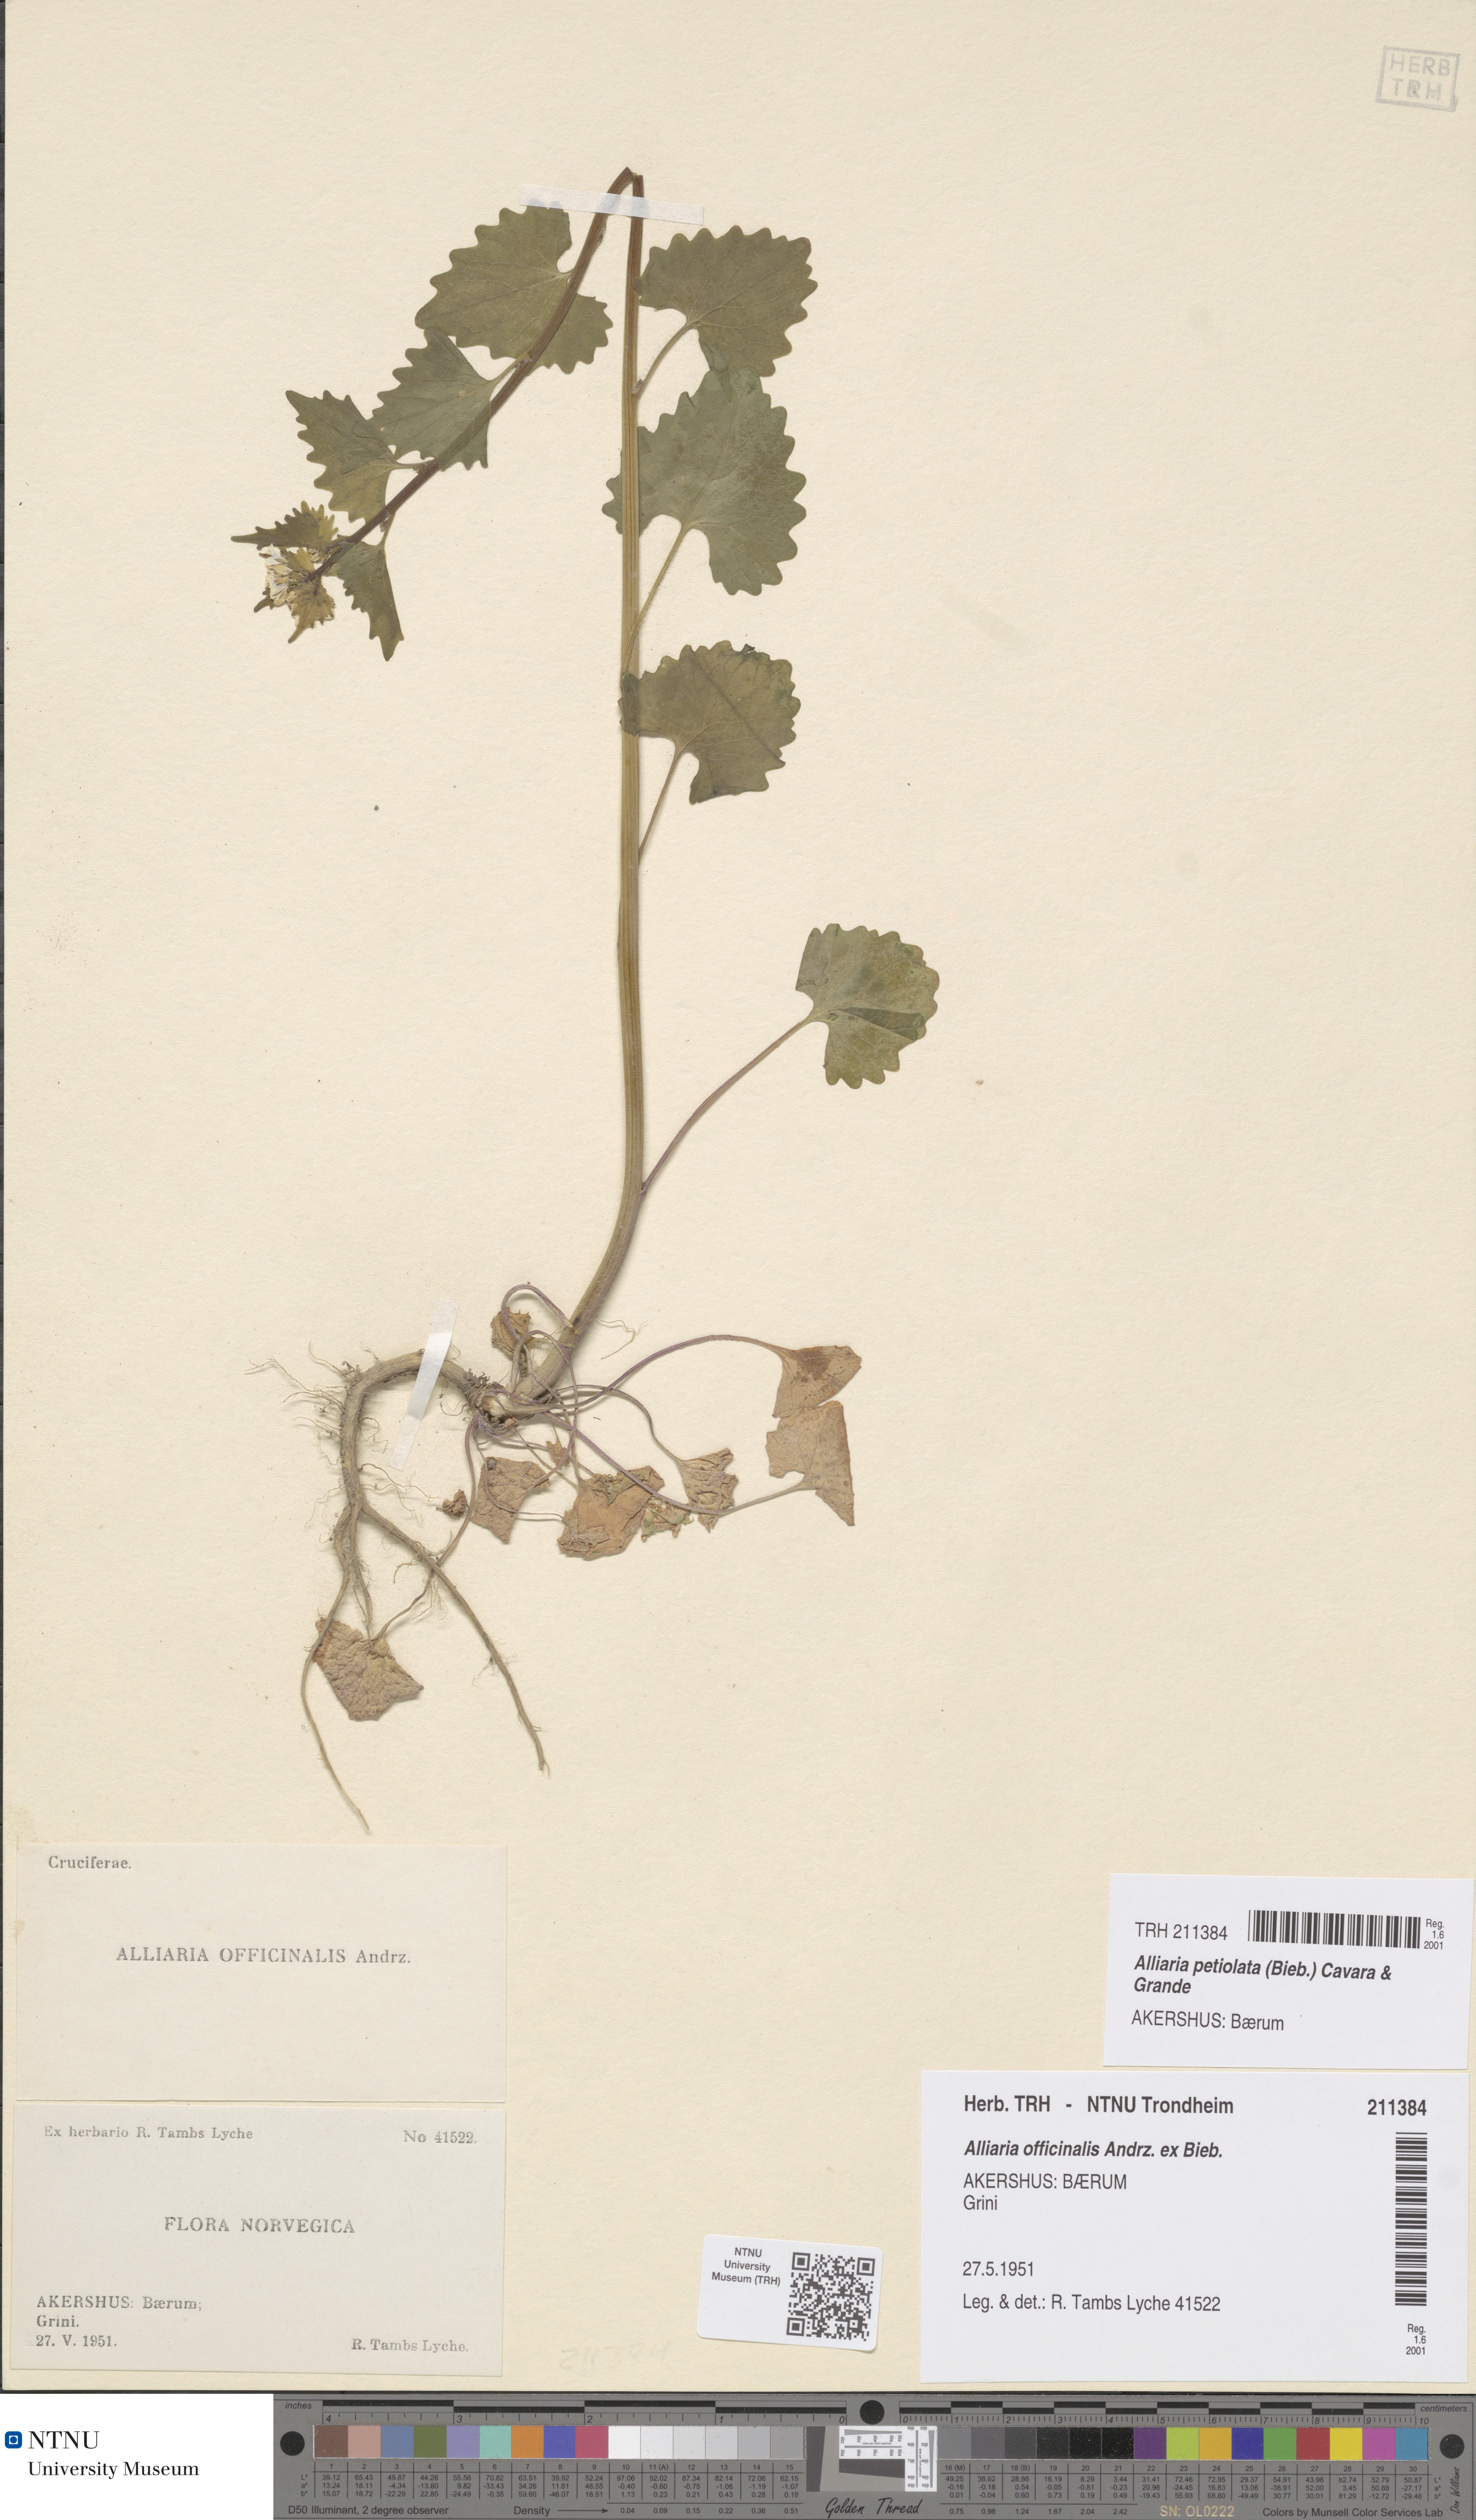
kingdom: Plantae
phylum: Tracheophyta
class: Magnoliopsida
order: Brassicales
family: Brassicaceae
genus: Alliaria
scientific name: Alliaria petiolata
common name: Garlic mustard
